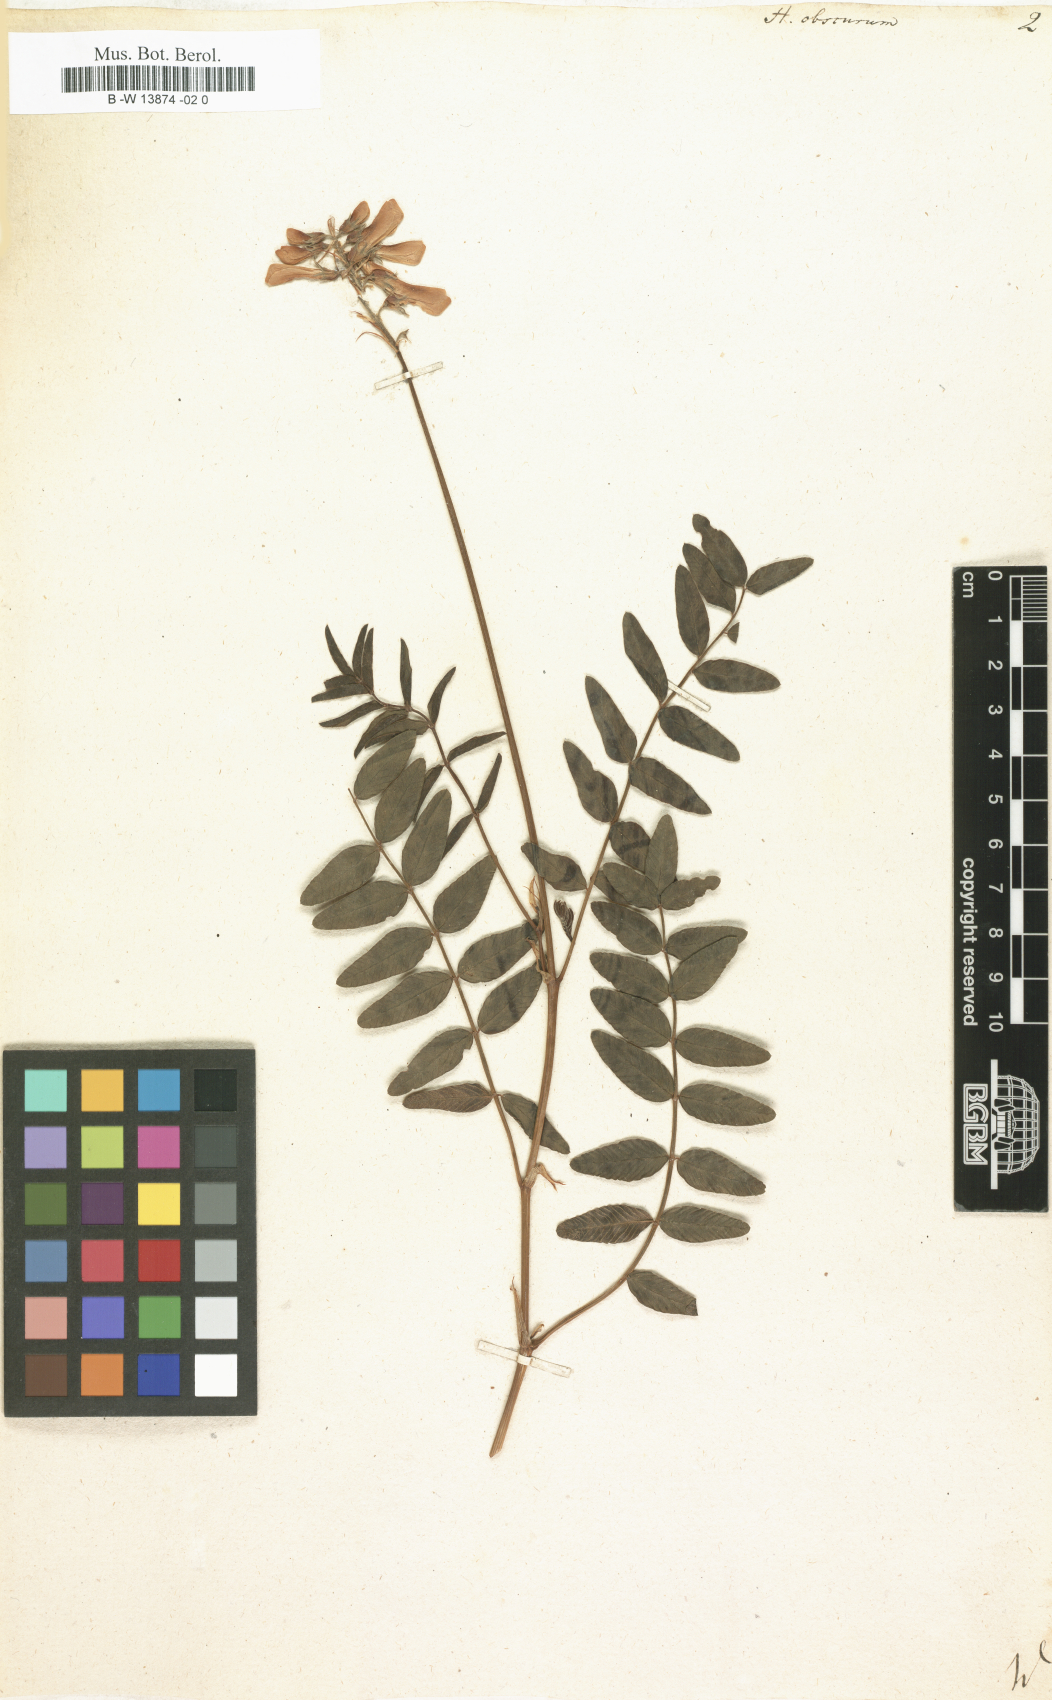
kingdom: Plantae
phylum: Tracheophyta
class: Magnoliopsida
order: Fabales
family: Fabaceae
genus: Hedysarum
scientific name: Hedysarum hedysaroides
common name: Alpine french-honeysuckle
